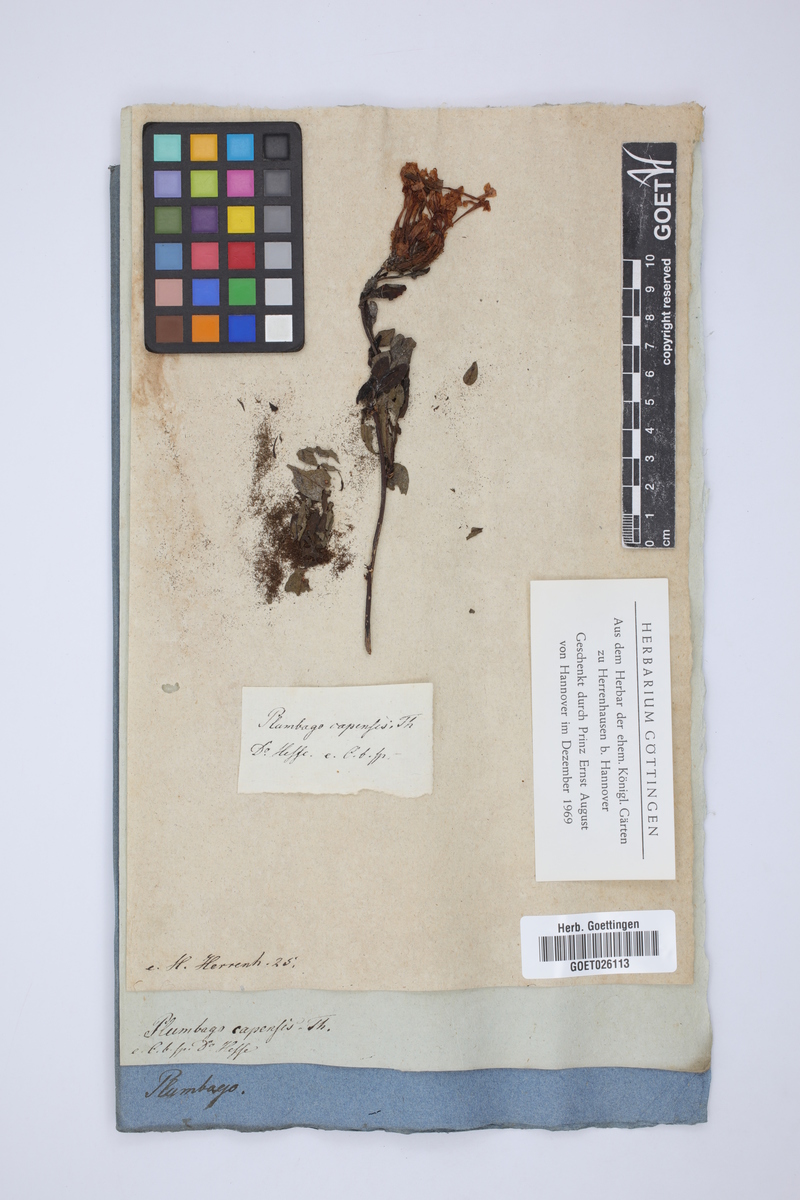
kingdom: Plantae
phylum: Tracheophyta
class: Magnoliopsida
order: Caryophyllales
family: Plumbaginaceae
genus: Plumbago
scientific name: Plumbago auriculata
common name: Cape leadwort
